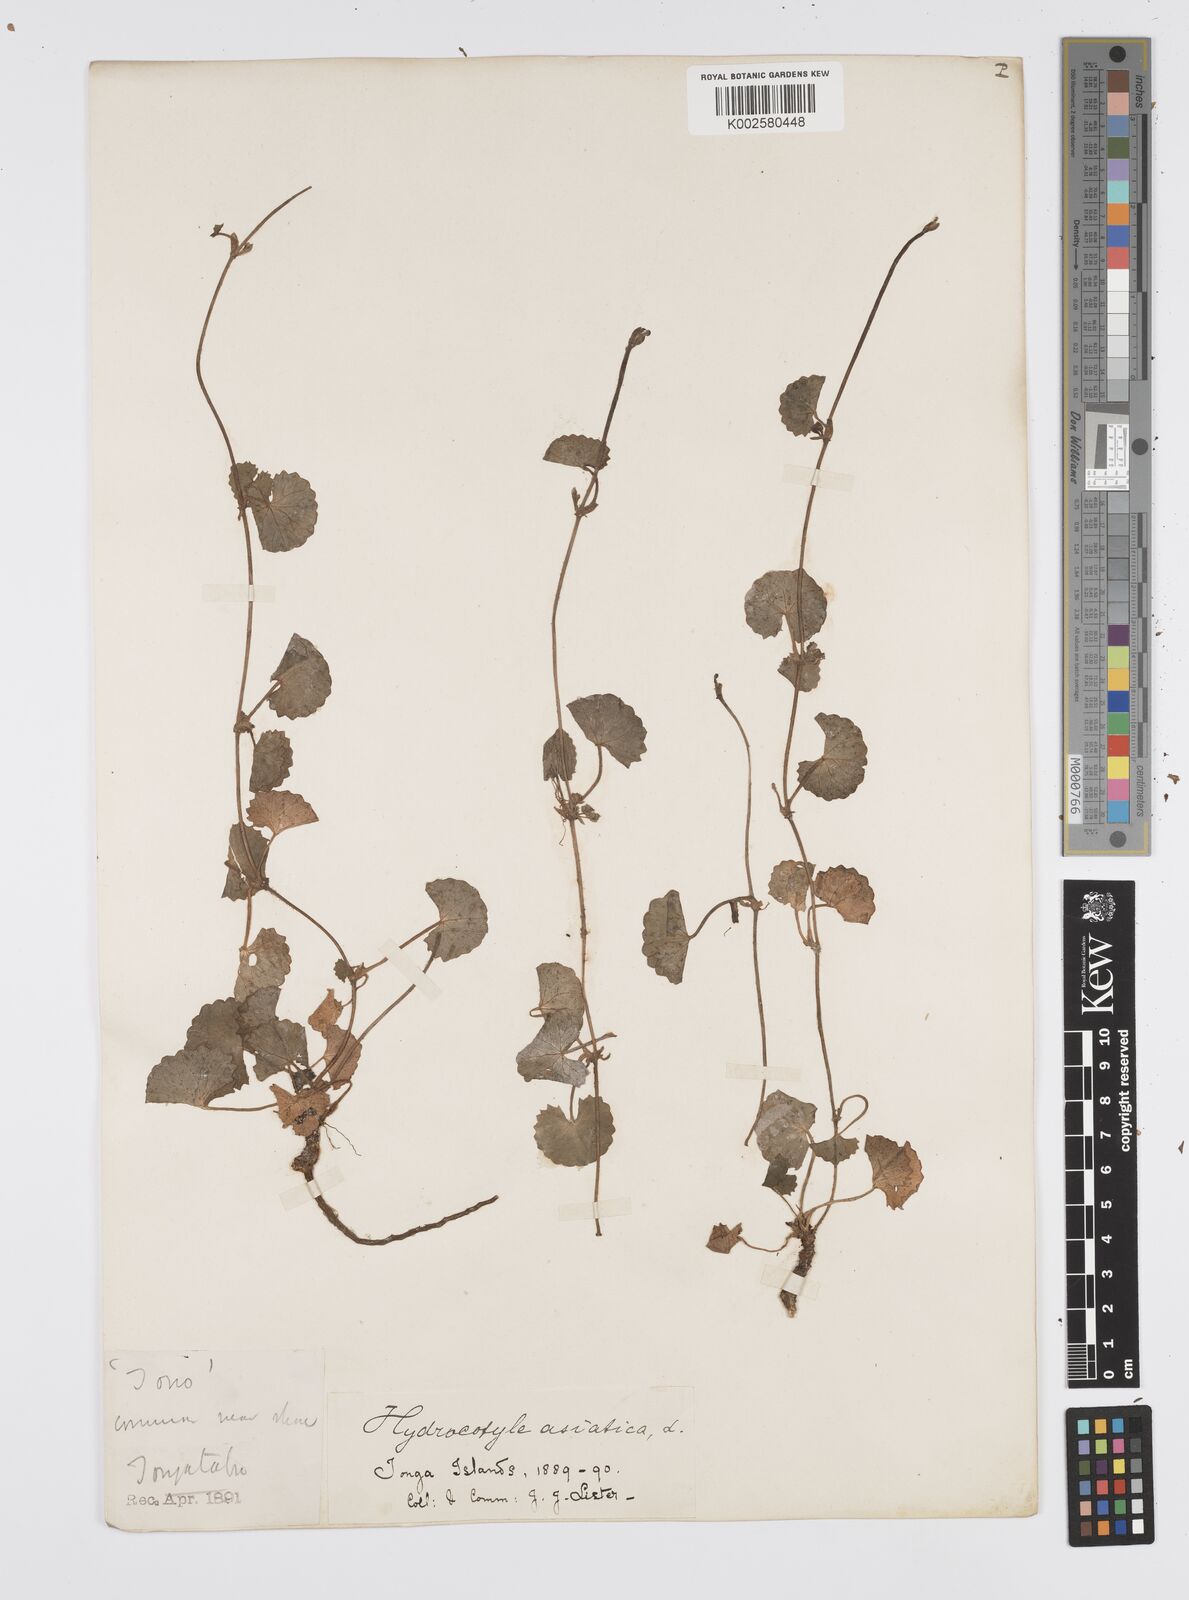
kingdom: Plantae
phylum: Tracheophyta
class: Magnoliopsida
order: Apiales
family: Apiaceae
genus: Centella
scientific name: Centella asiatica
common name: Spadeleaf
